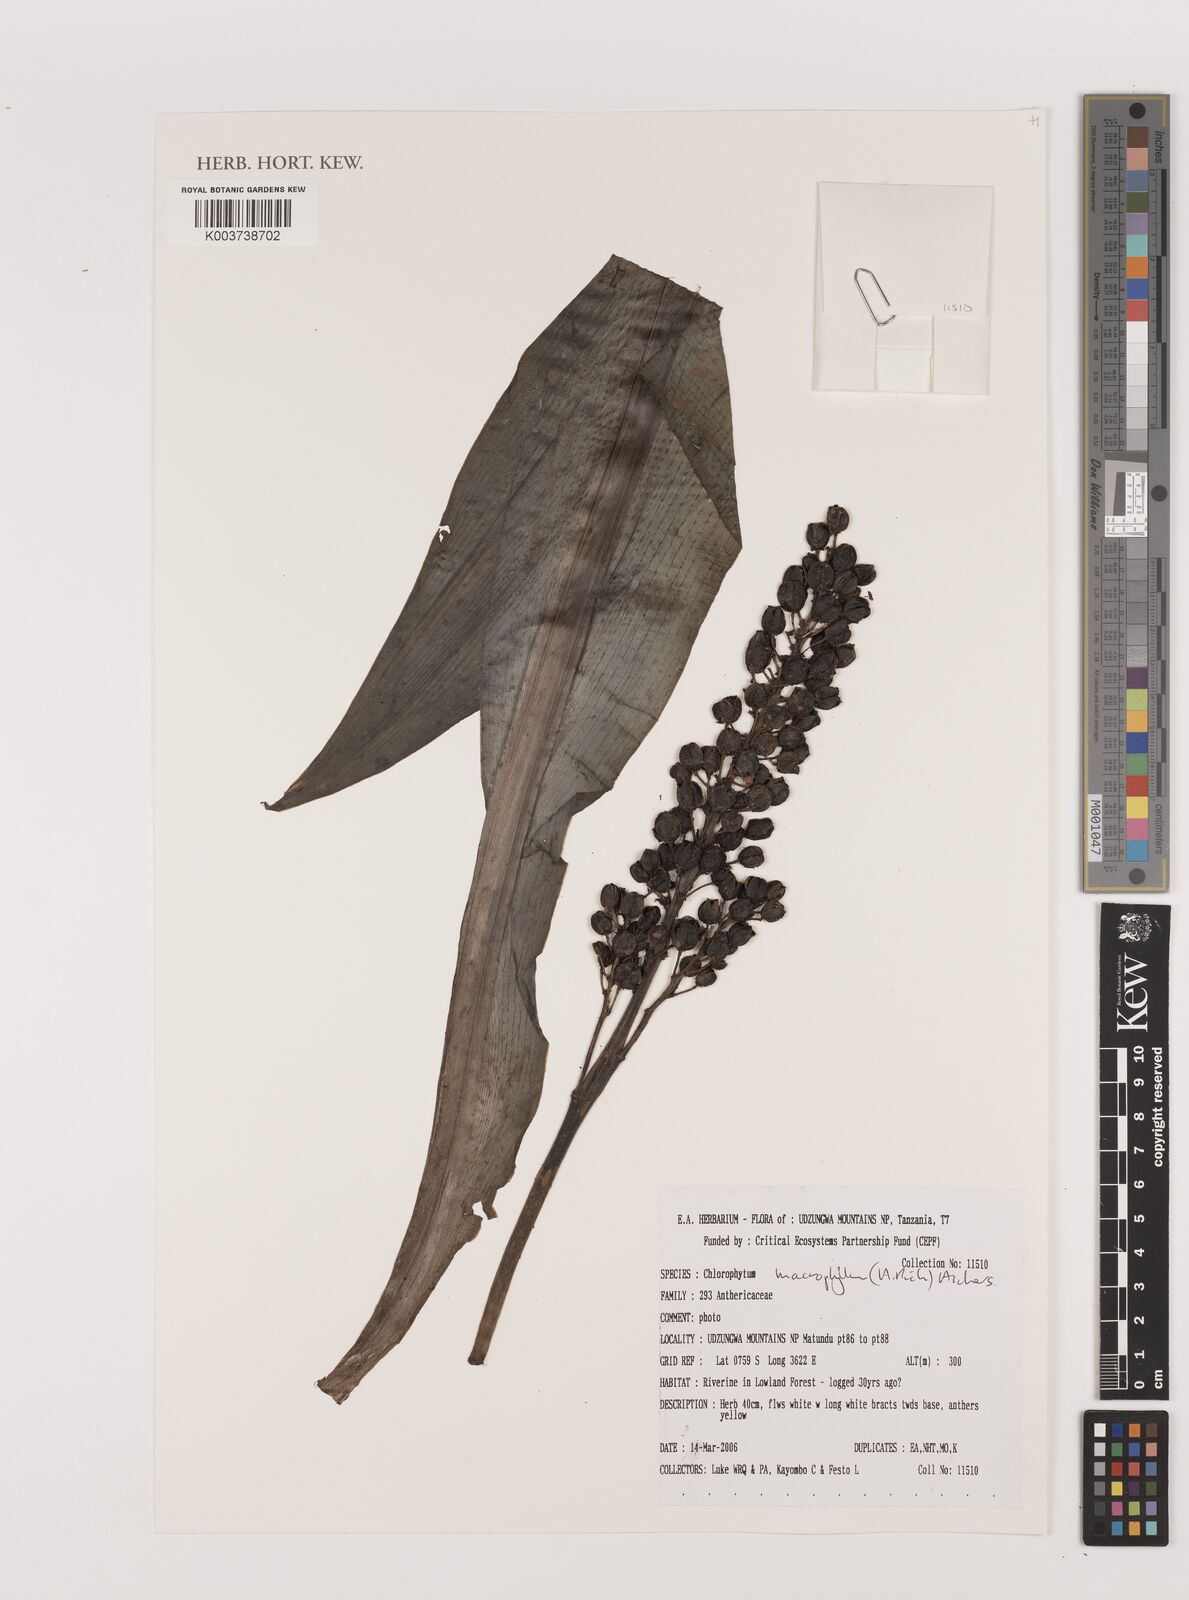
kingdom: Plantae
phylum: Tracheophyta
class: Liliopsida
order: Asparagales
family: Asparagaceae
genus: Chlorophytum
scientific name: Chlorophytum macrophyllum
